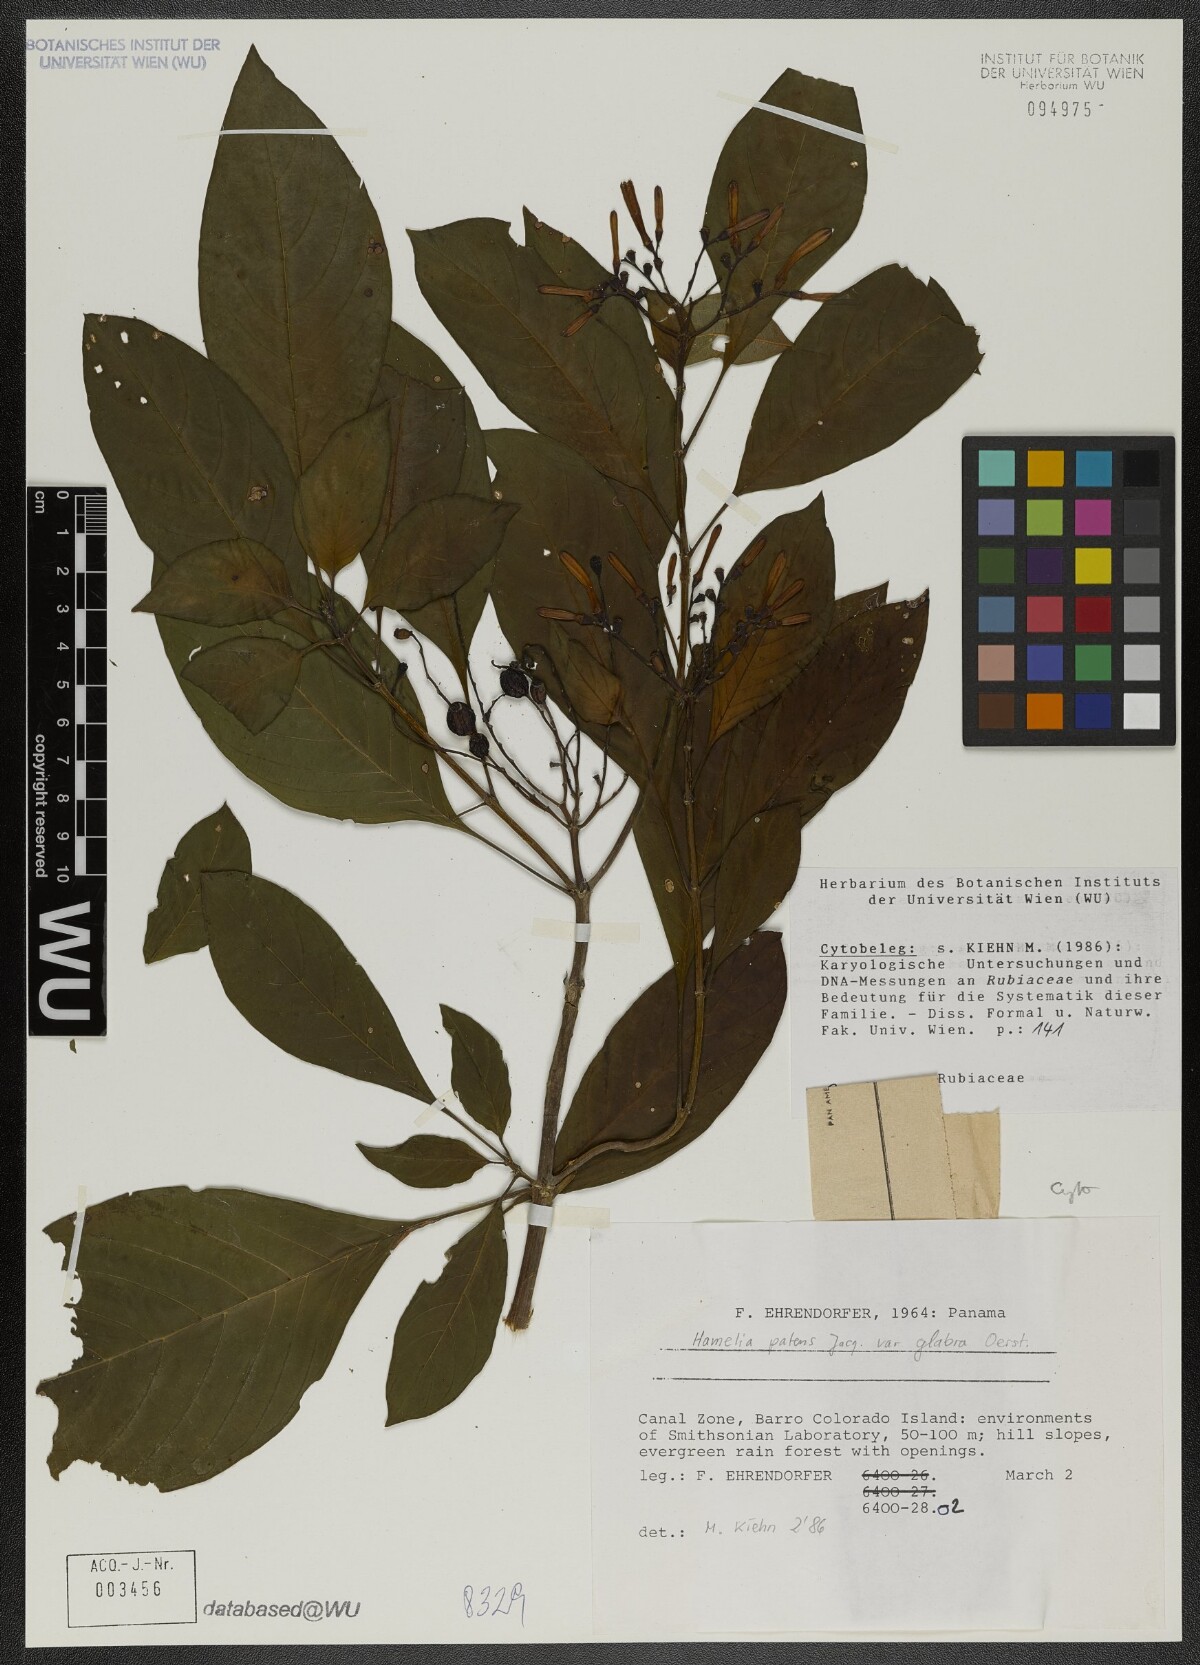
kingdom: Plantae
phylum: Tracheophyta
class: Magnoliopsida
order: Gentianales
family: Rubiaceae
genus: Hamelia
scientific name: Hamelia patens
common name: Redhead
